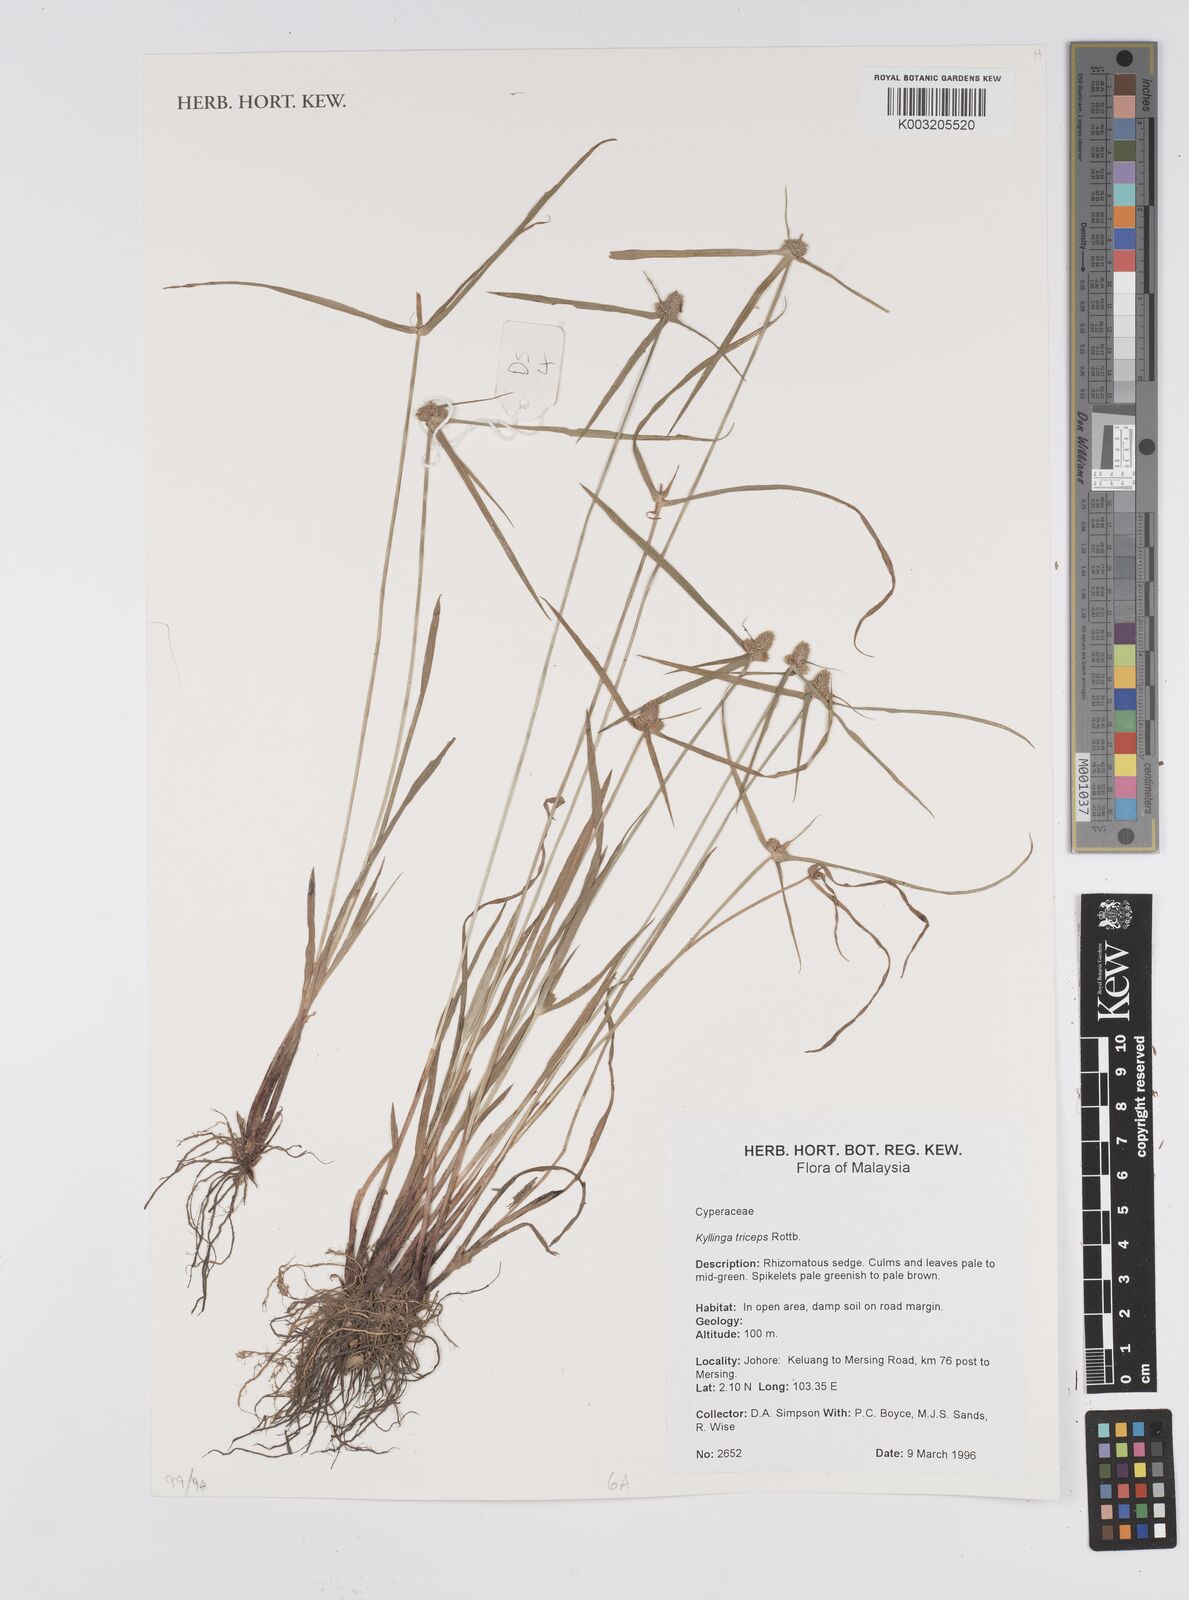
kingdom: Plantae
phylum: Tracheophyta
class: Liliopsida
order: Poales
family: Cyperaceae
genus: Cyperus
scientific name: Cyperus
